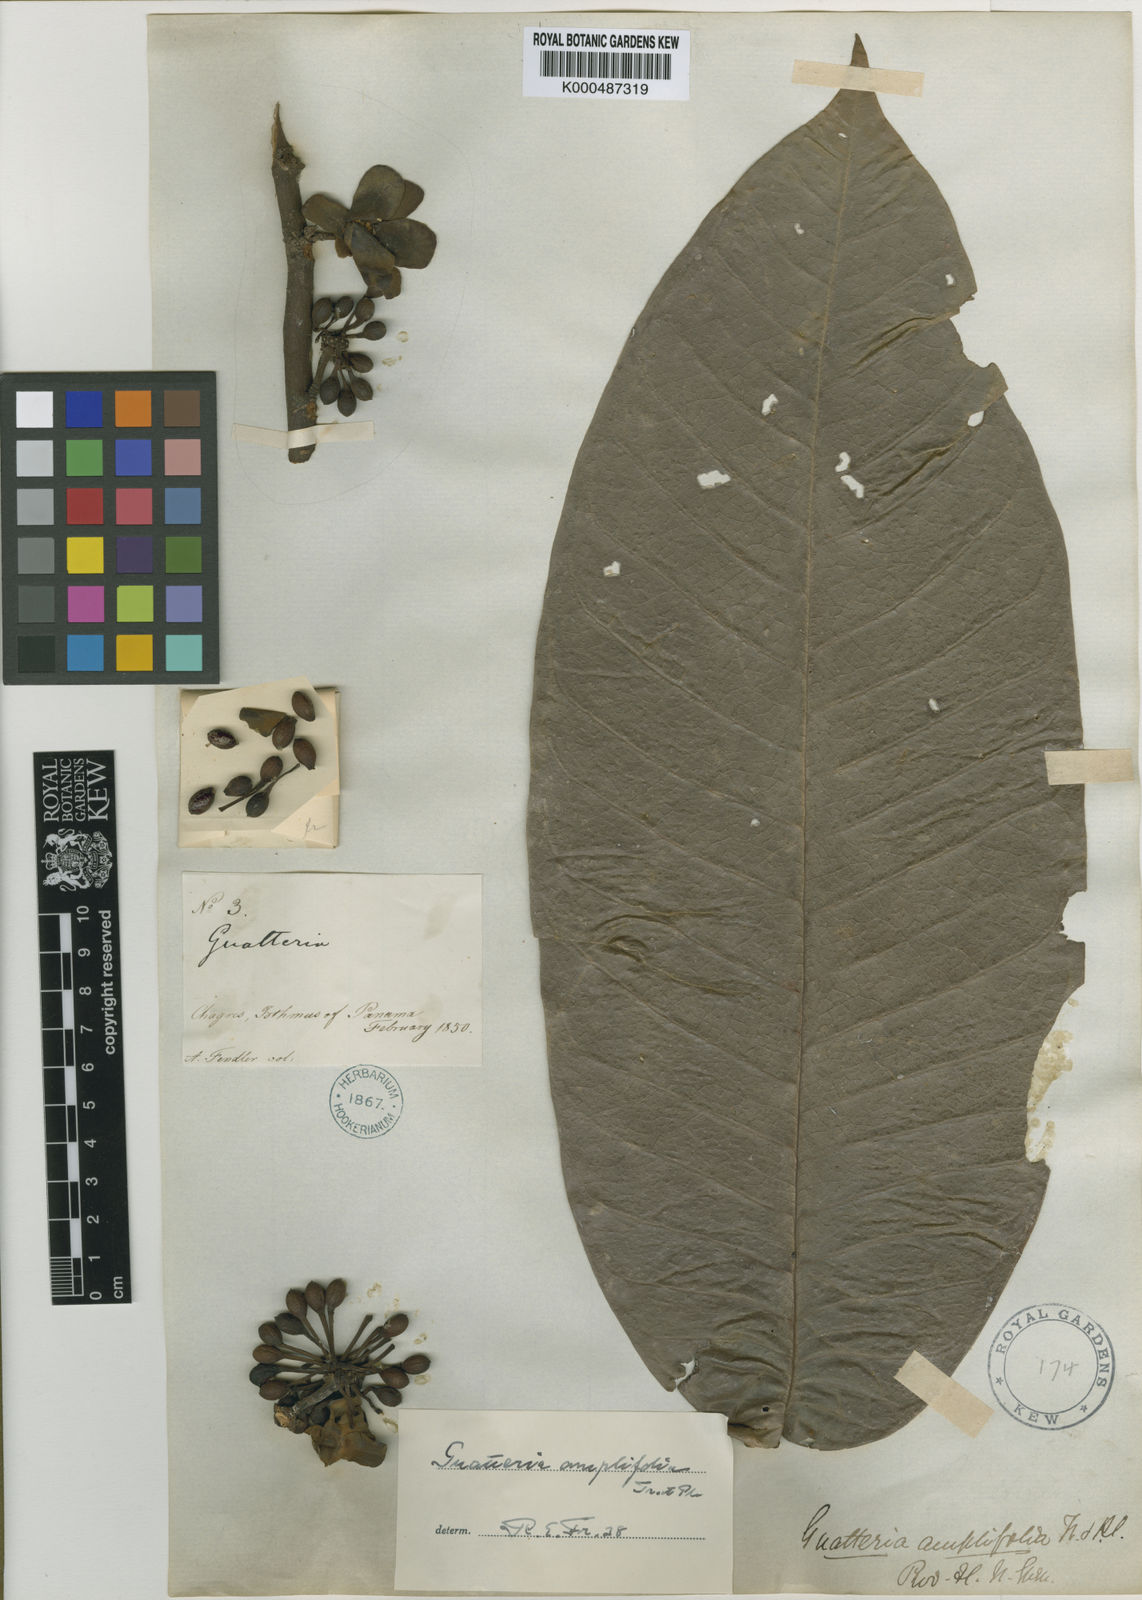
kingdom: Plantae
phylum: Tracheophyta
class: Magnoliopsida
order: Magnoliales
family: Annonaceae
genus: Guatteria
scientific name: Guatteria amplifolia
